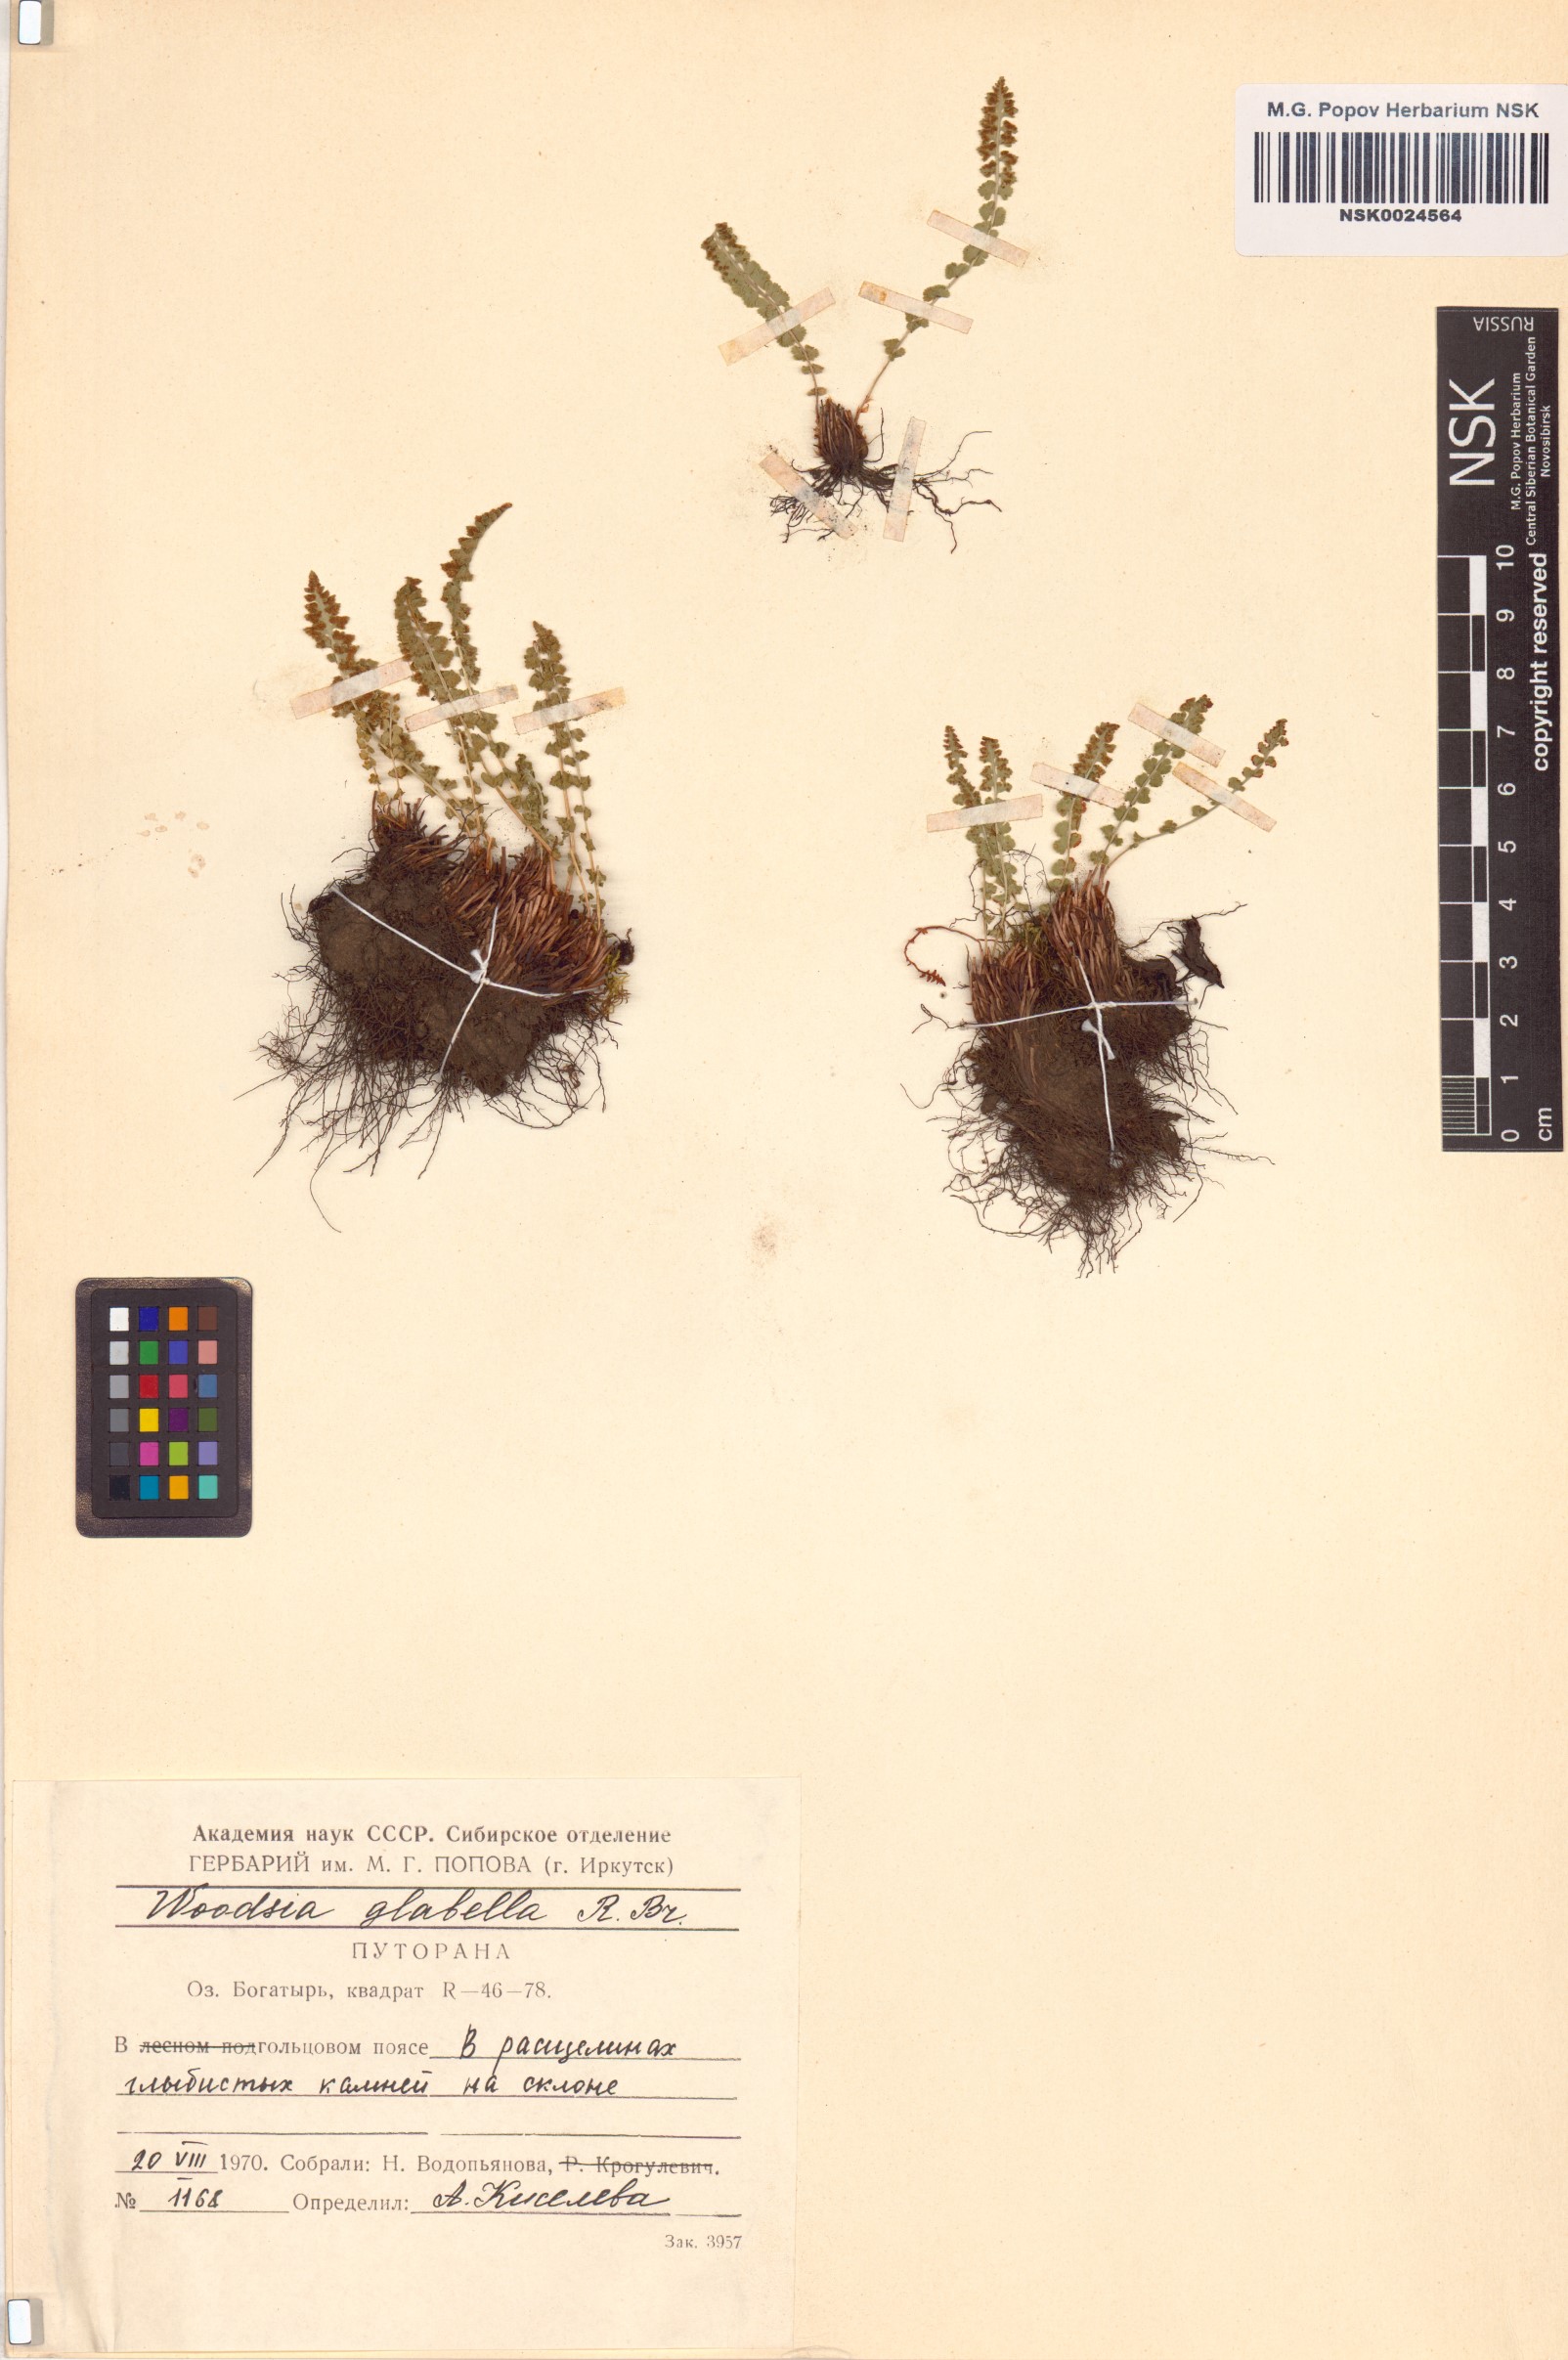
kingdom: Plantae
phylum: Tracheophyta
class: Polypodiopsida
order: Polypodiales
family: Woodsiaceae
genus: Woodsia
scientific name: Woodsia glabella
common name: Smooth woodsia
